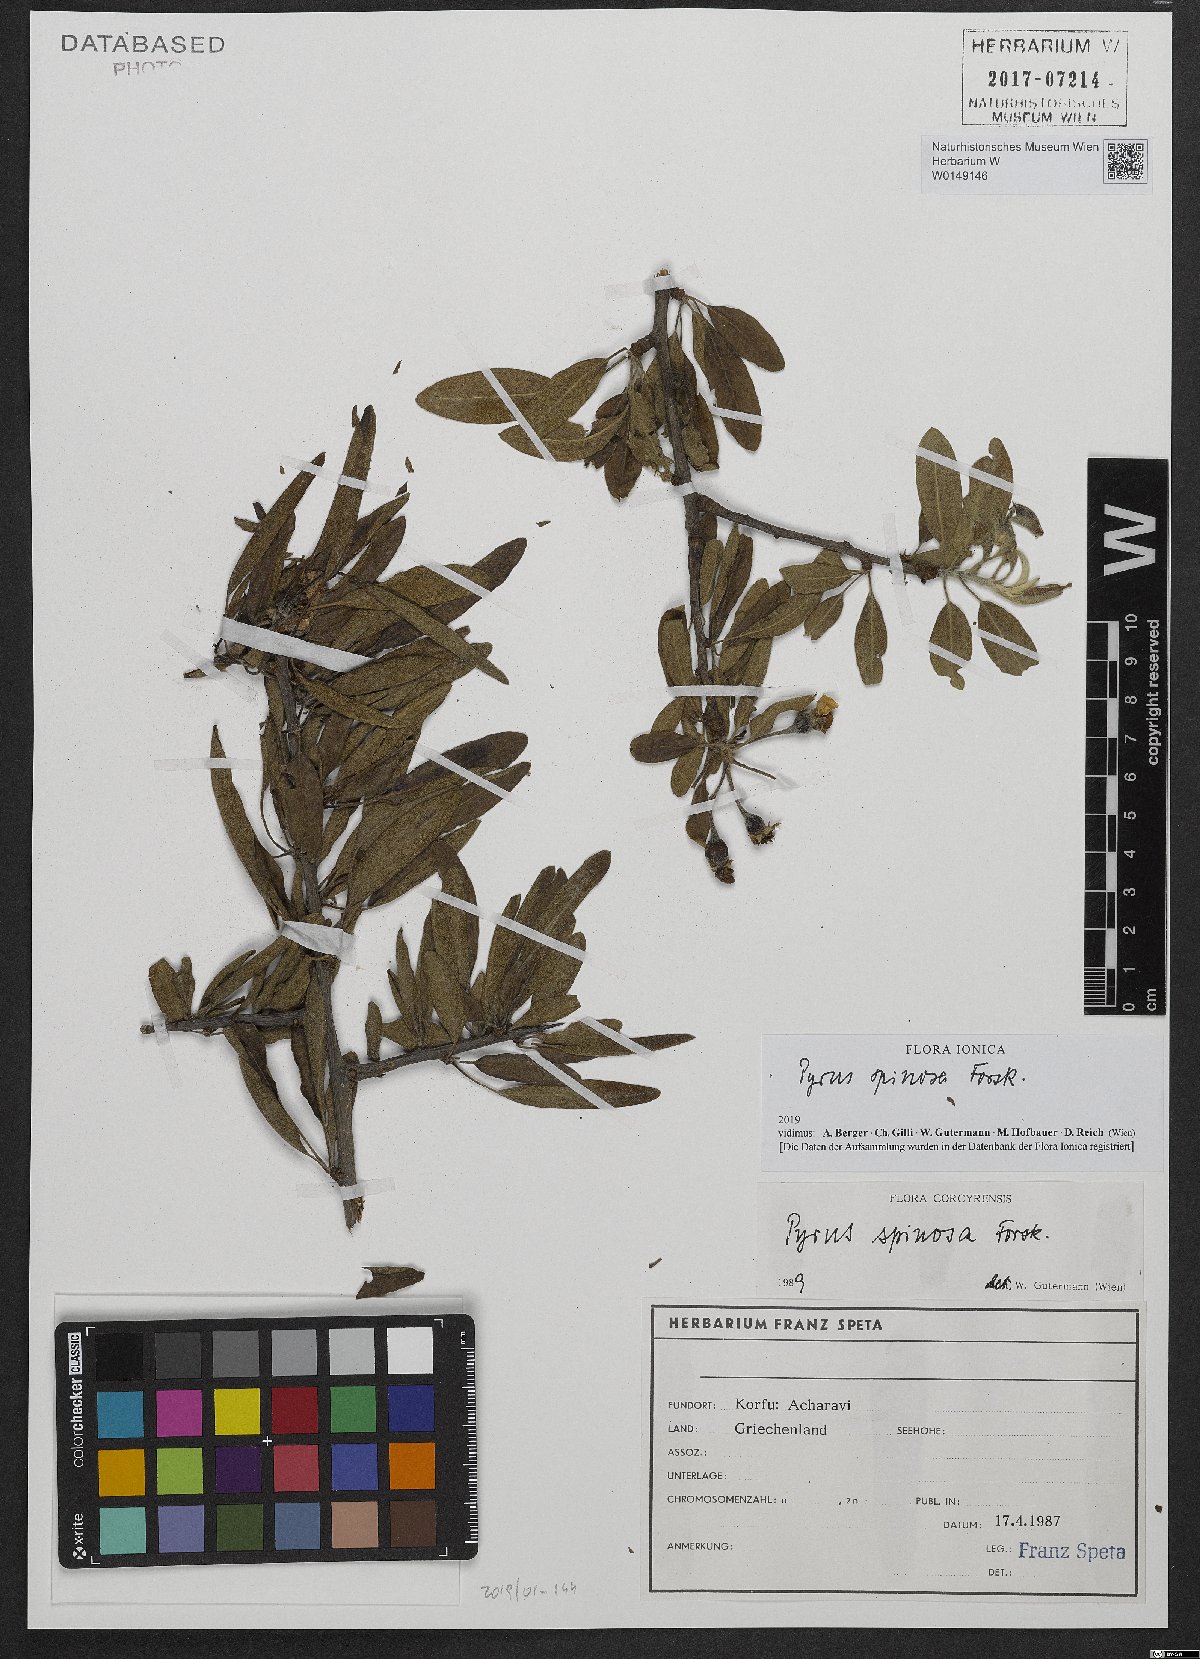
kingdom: Plantae
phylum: Tracheophyta
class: Magnoliopsida
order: Rosales
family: Rosaceae
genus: Pyrus
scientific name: Pyrus spinosa
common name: Almond-leaf pear
